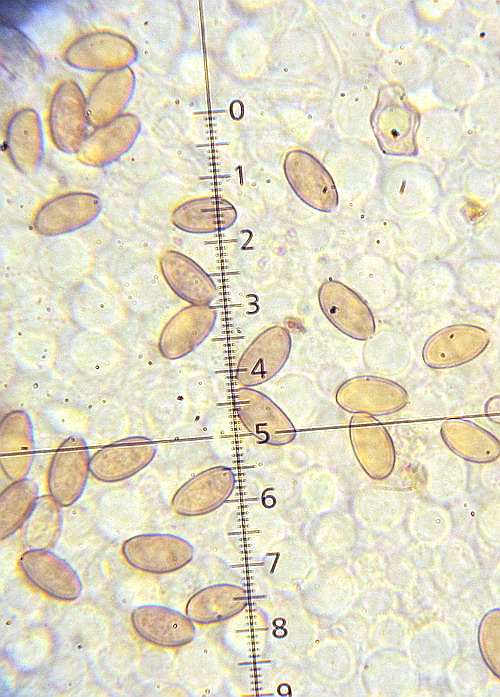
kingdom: Fungi
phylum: Basidiomycota
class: Agaricomycetes
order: Agaricales
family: Strophariaceae
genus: Agrocybe
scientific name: Agrocybe arvalis
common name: rodslående agerhat
